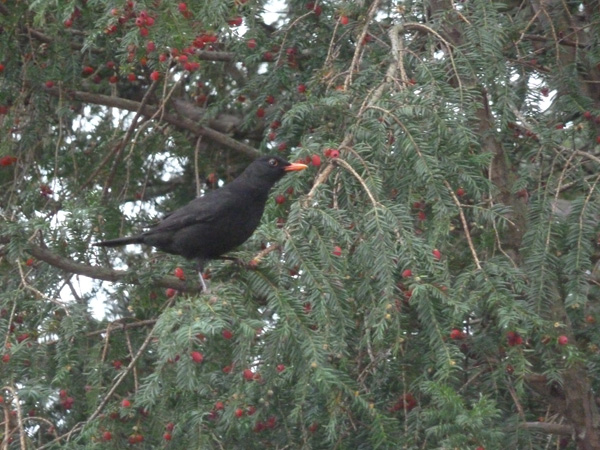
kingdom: Animalia
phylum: Chordata
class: Aves
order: Passeriformes
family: Turdidae
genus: Turdus
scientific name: Turdus merula
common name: Common blackbird
